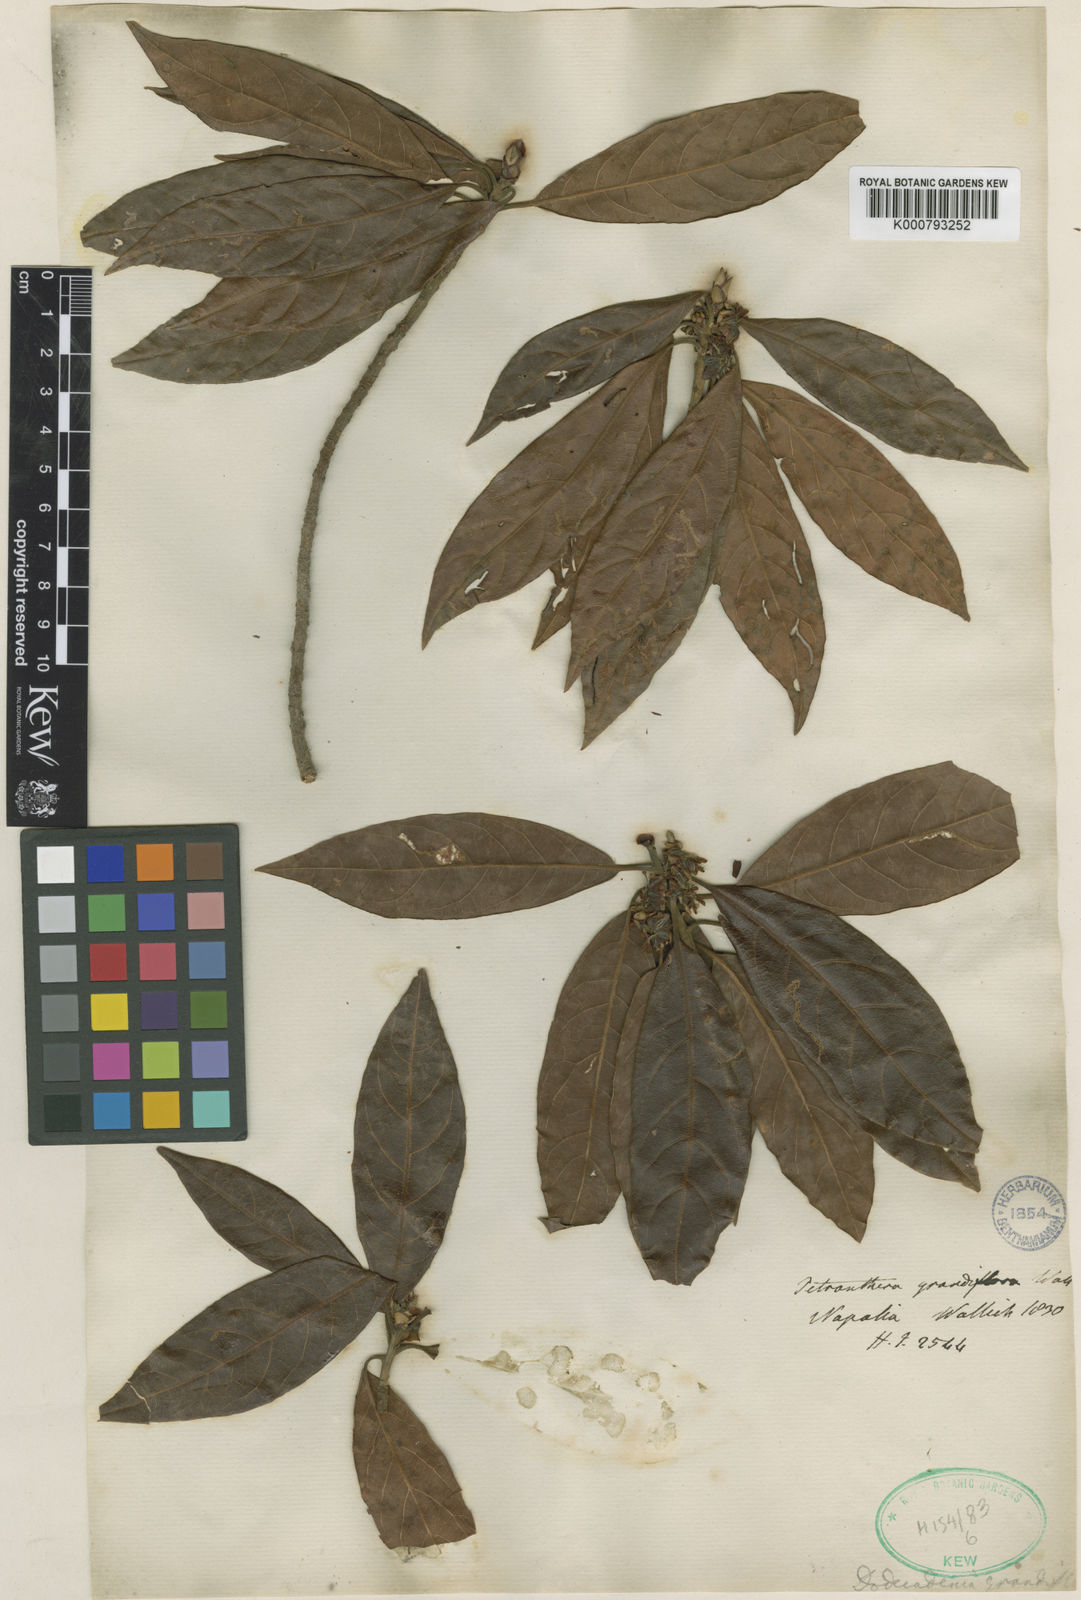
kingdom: Plantae
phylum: Tracheophyta
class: Magnoliopsida
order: Laurales
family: Lauraceae
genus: Dodecadenia
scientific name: Dodecadenia grandiflora
